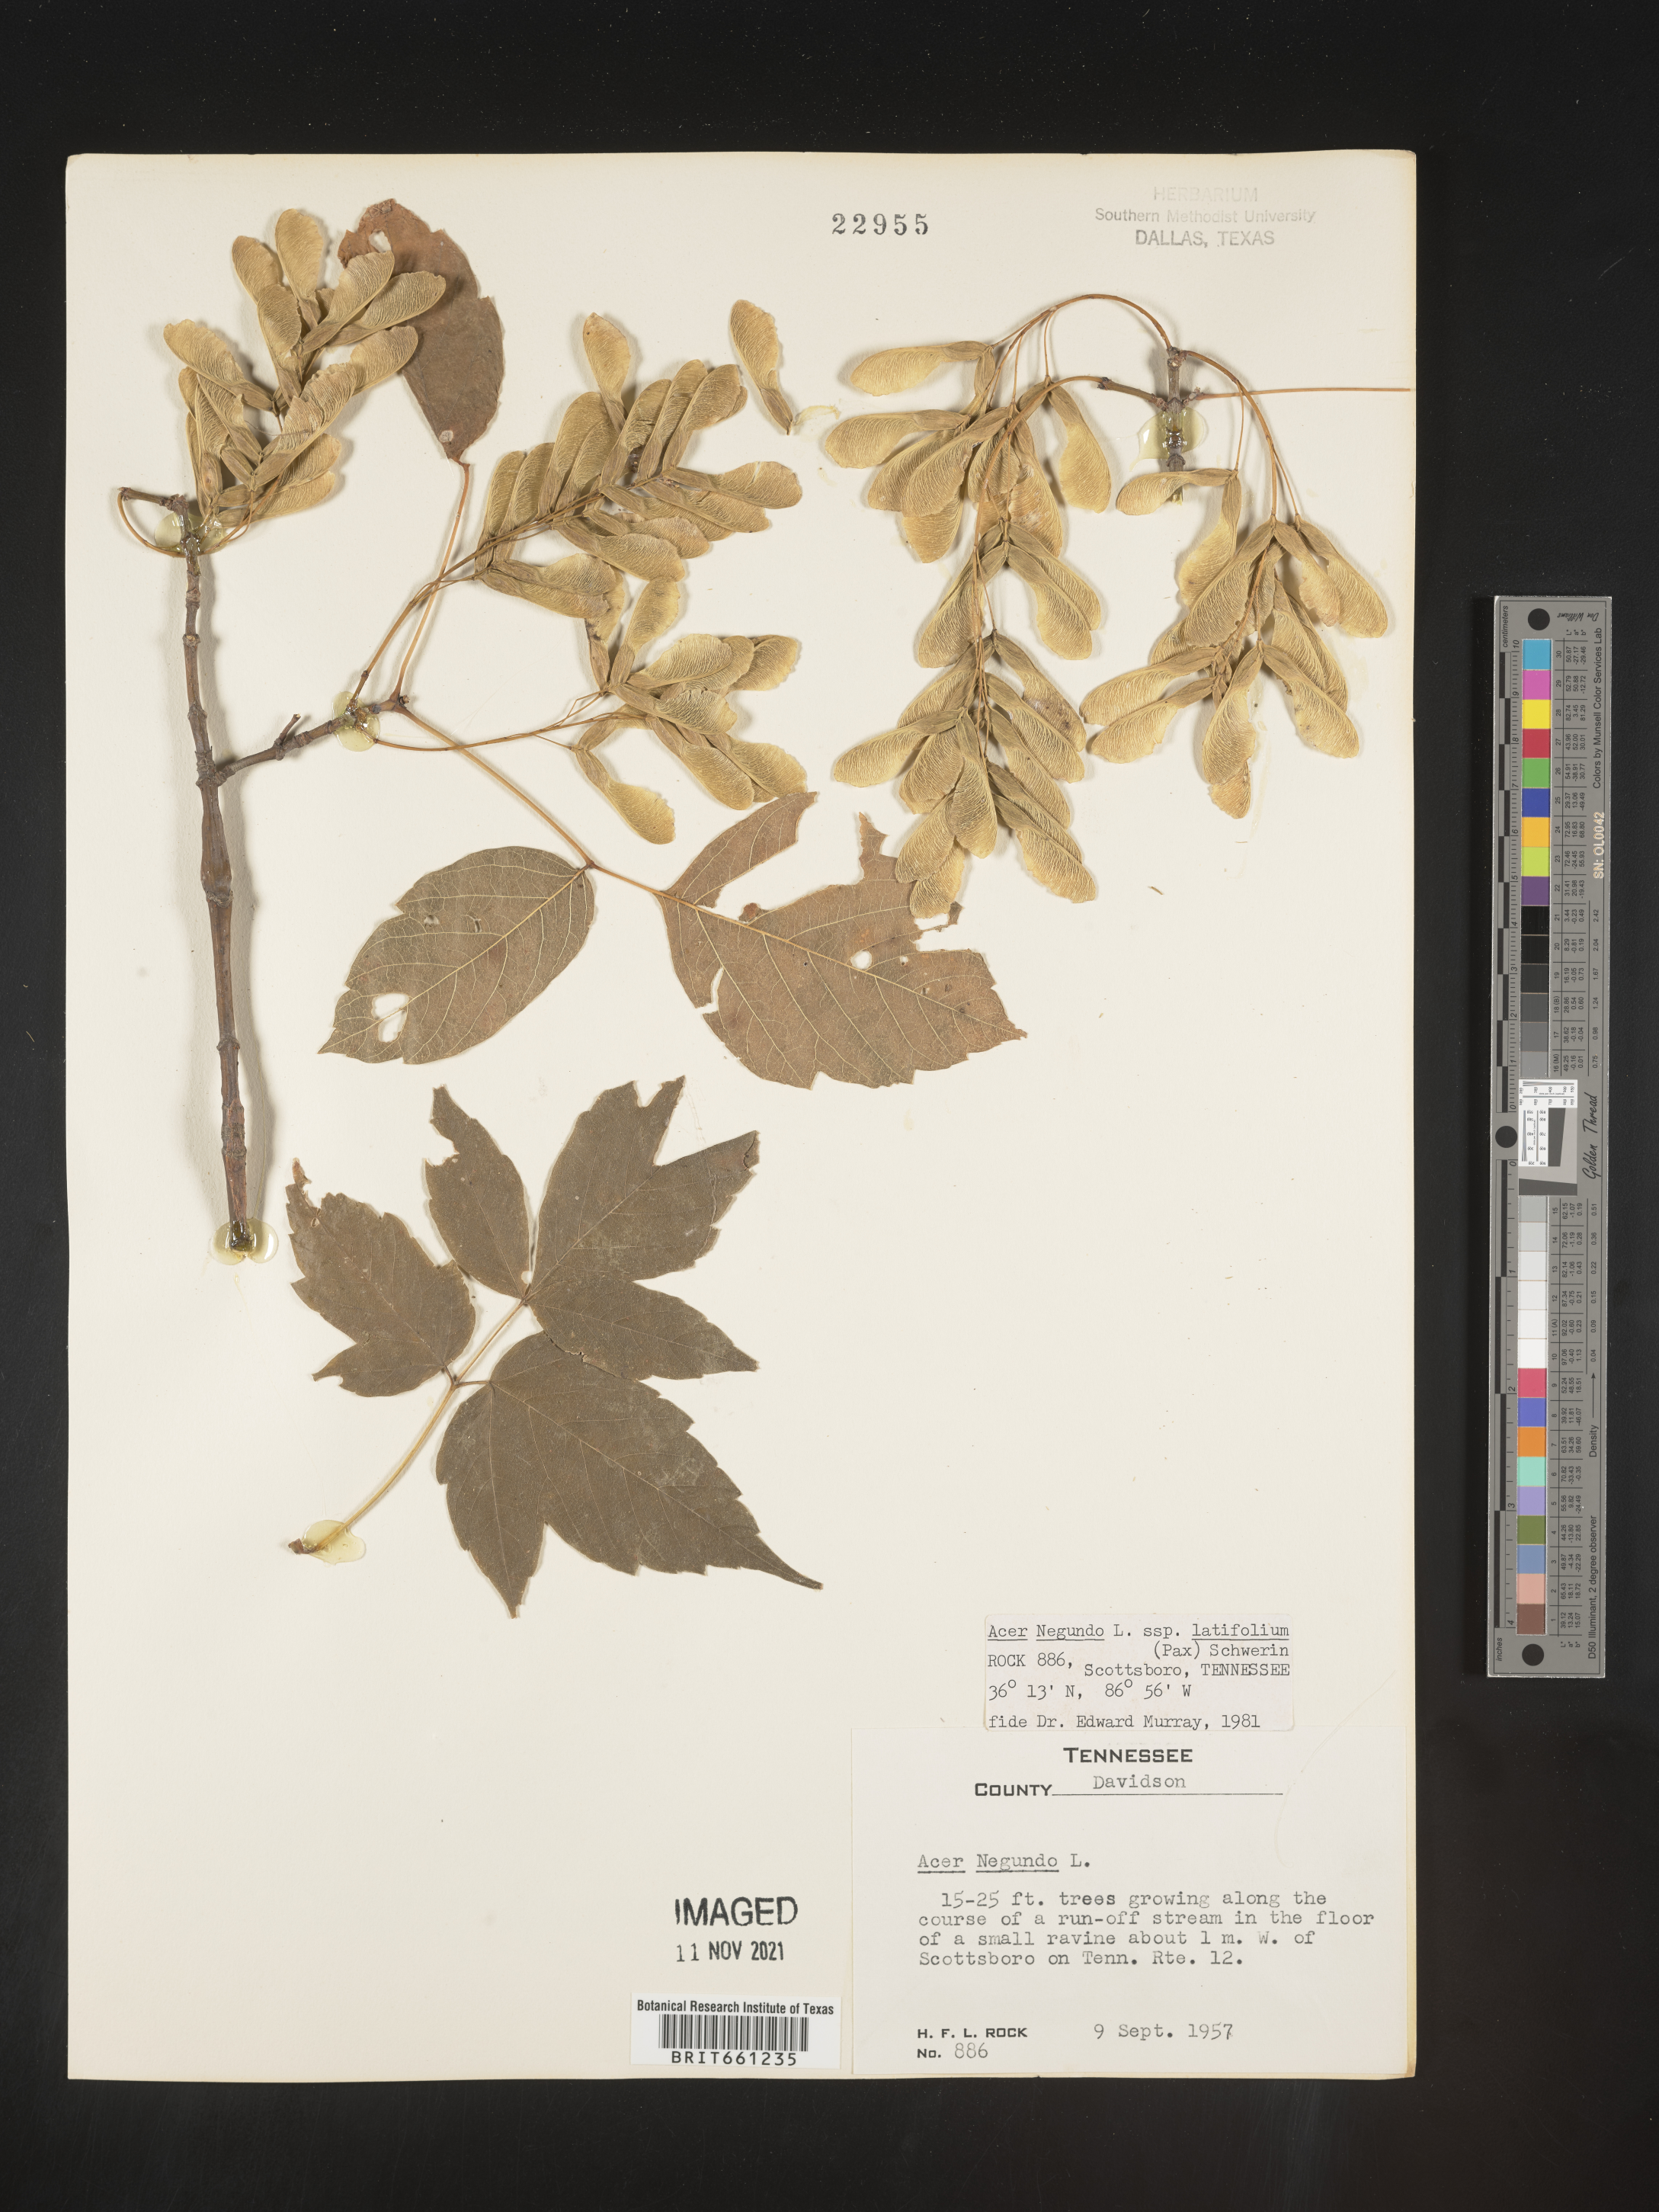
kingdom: Plantae
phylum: Tracheophyta
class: Magnoliopsida
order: Sapindales
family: Sapindaceae
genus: Acer
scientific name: Acer negundo
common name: Ashleaf maple
